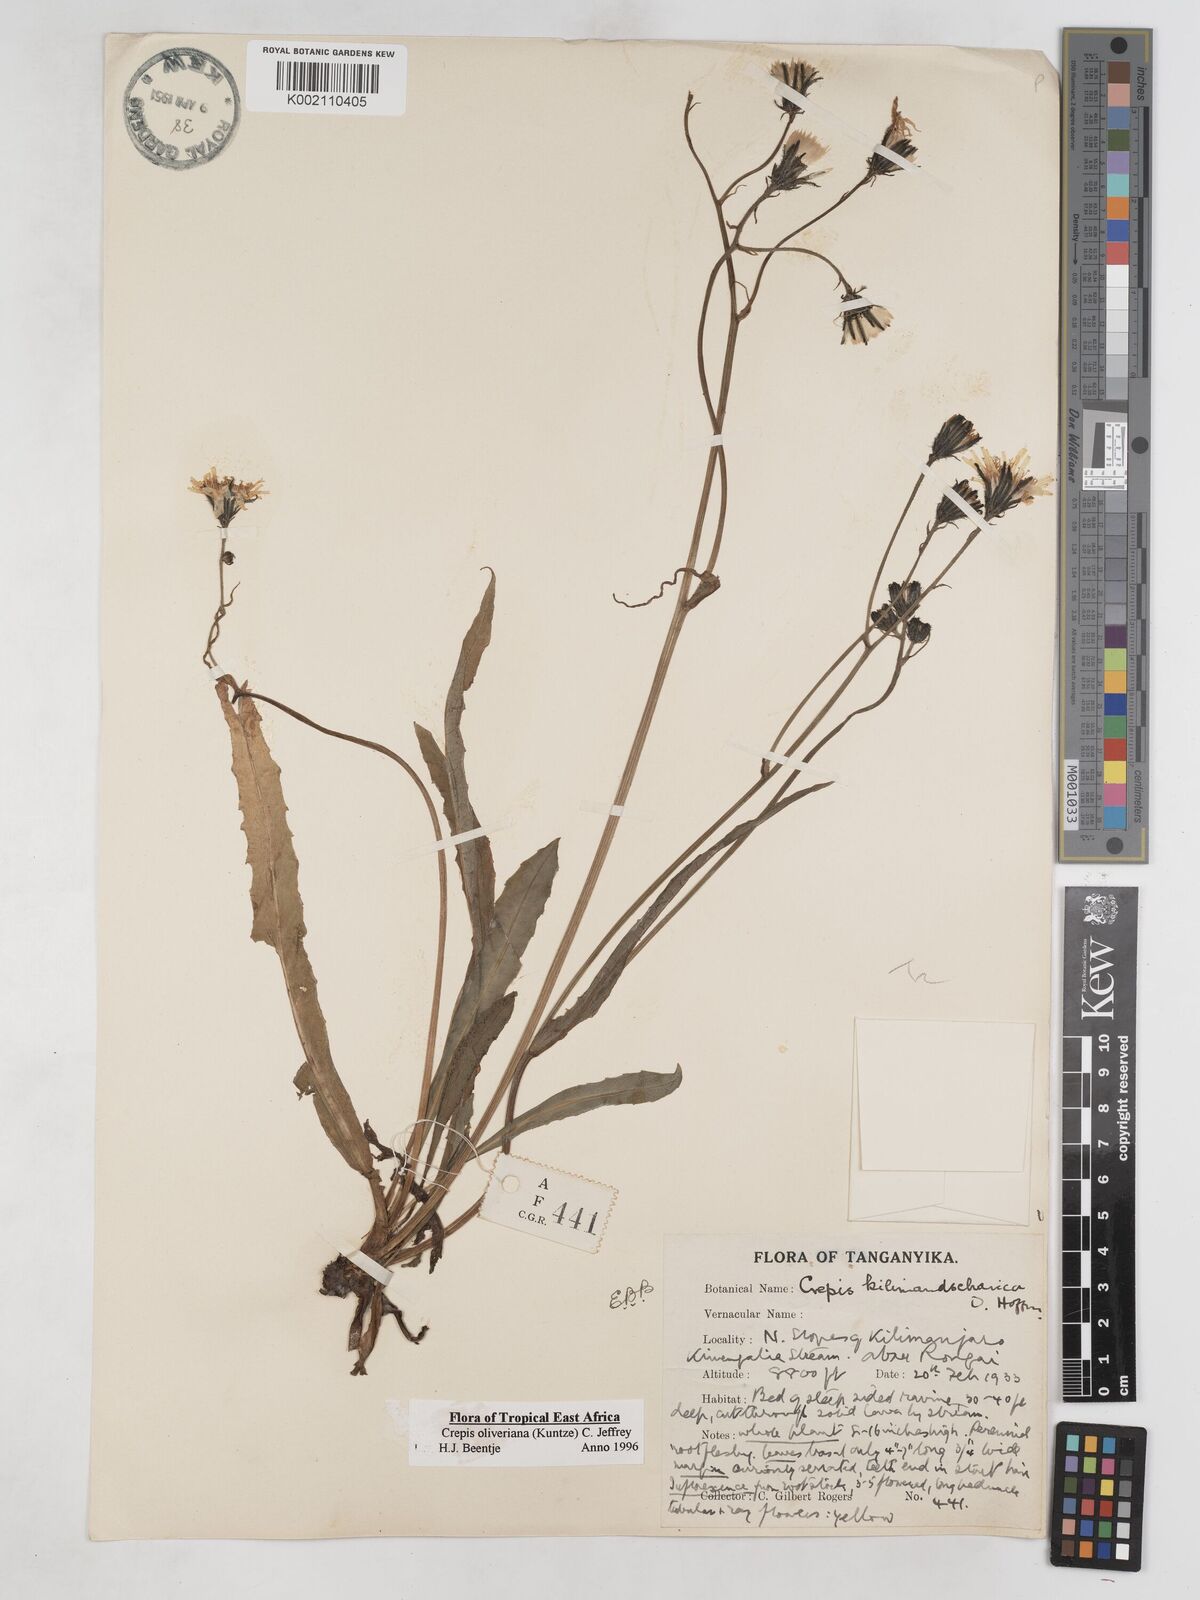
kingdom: Plantae
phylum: Tracheophyta
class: Magnoliopsida
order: Asterales
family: Asteraceae
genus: Crepis
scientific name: Crepis hypochoeridea
